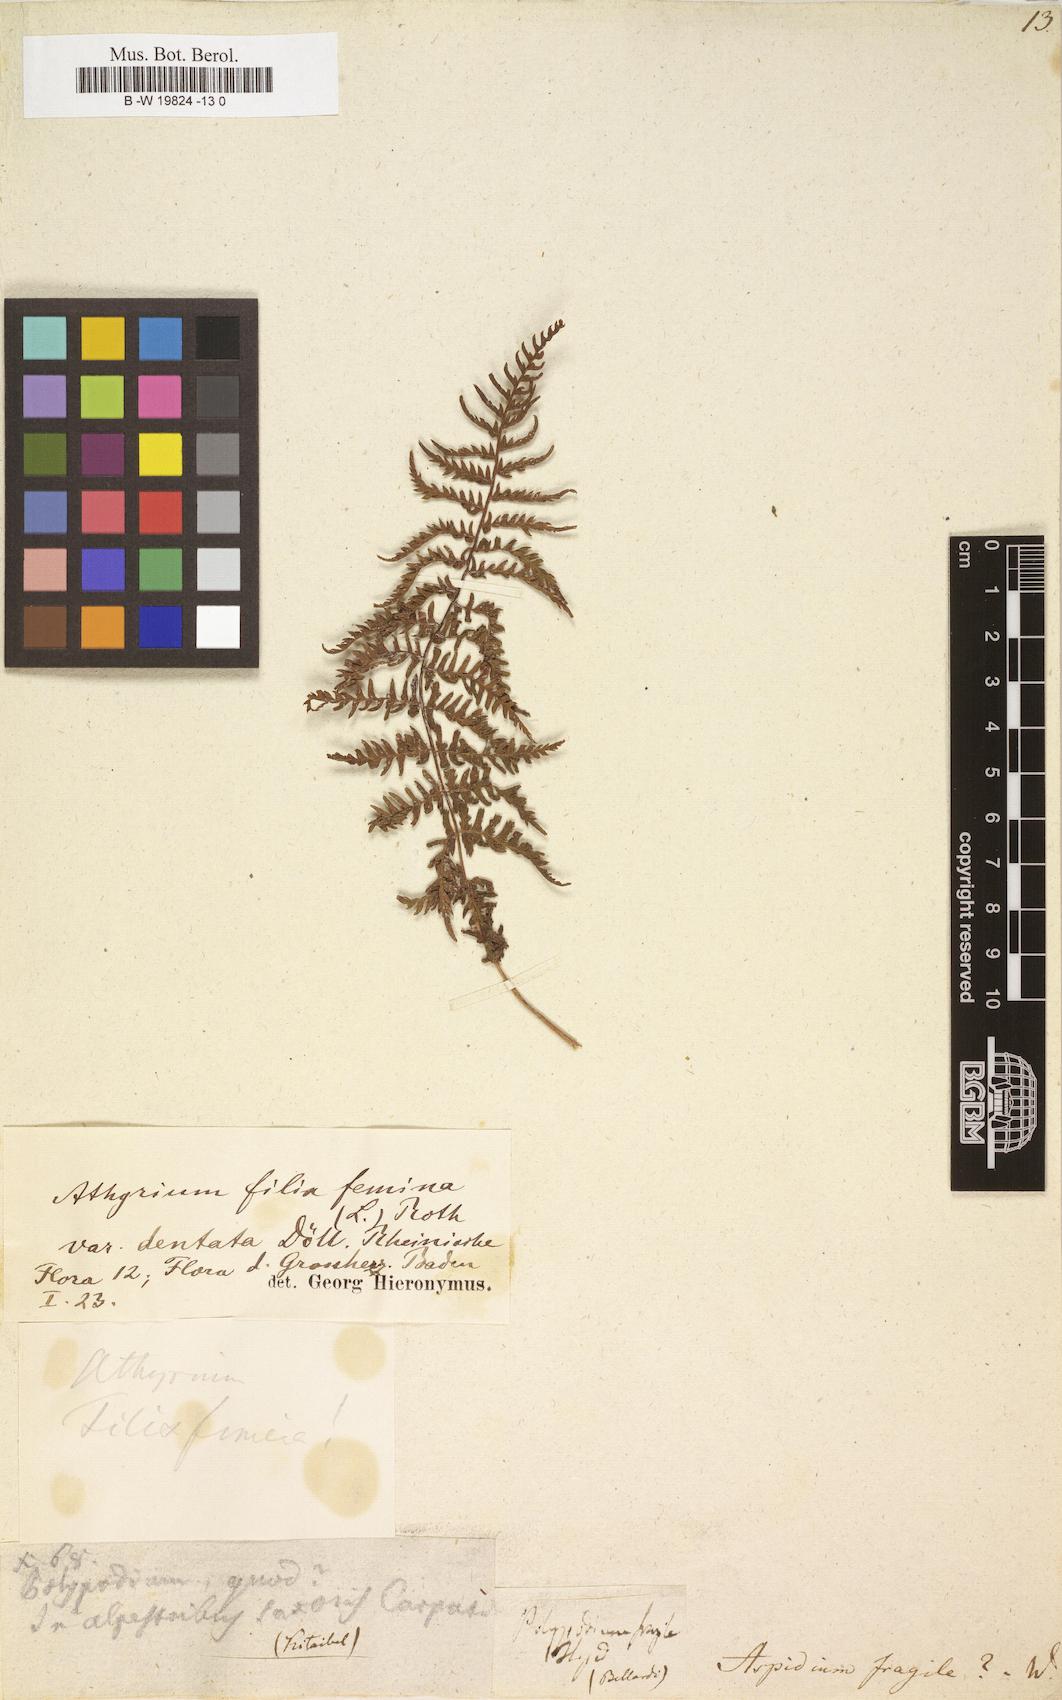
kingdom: Plantae
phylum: Tracheophyta
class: Polypodiopsida
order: Polypodiales
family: Cystopteridaceae
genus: Cystopteris
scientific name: Cystopteris fragilis
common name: Brittle bladder fern
